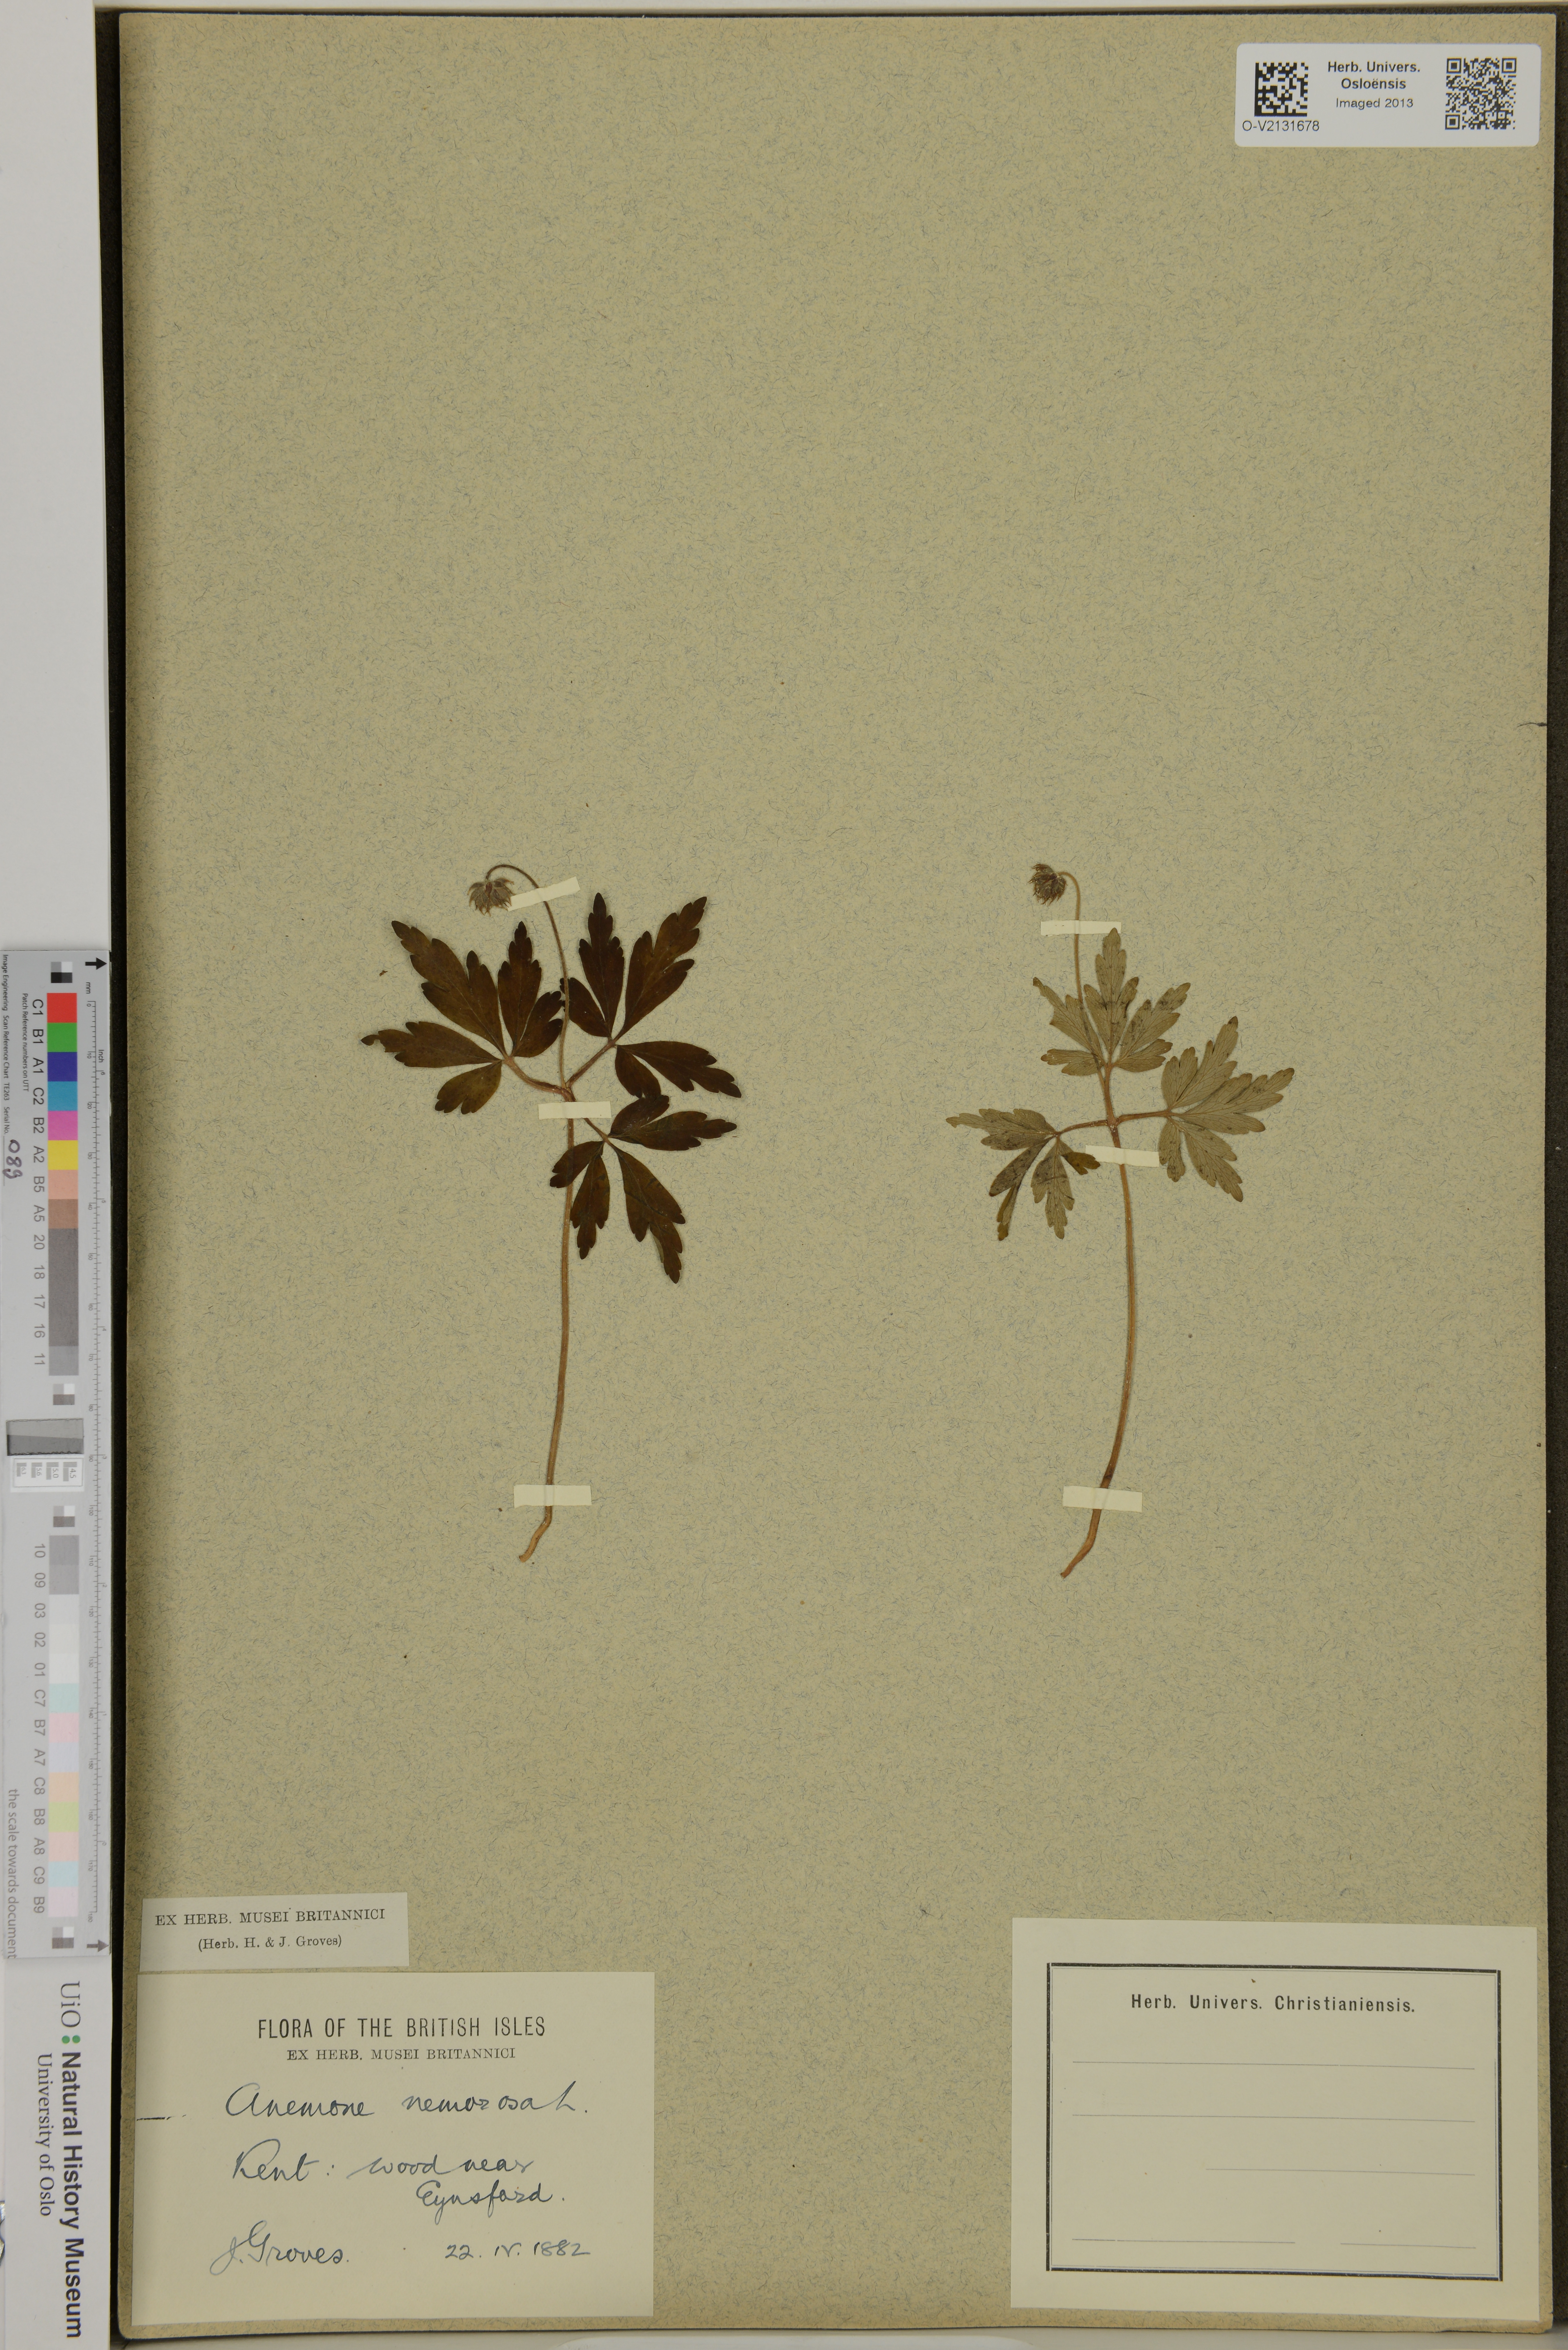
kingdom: Plantae
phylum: Tracheophyta
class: Magnoliopsida
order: Ranunculales
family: Ranunculaceae
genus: Anemone
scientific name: Anemone nemorosa
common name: Wood anemone
